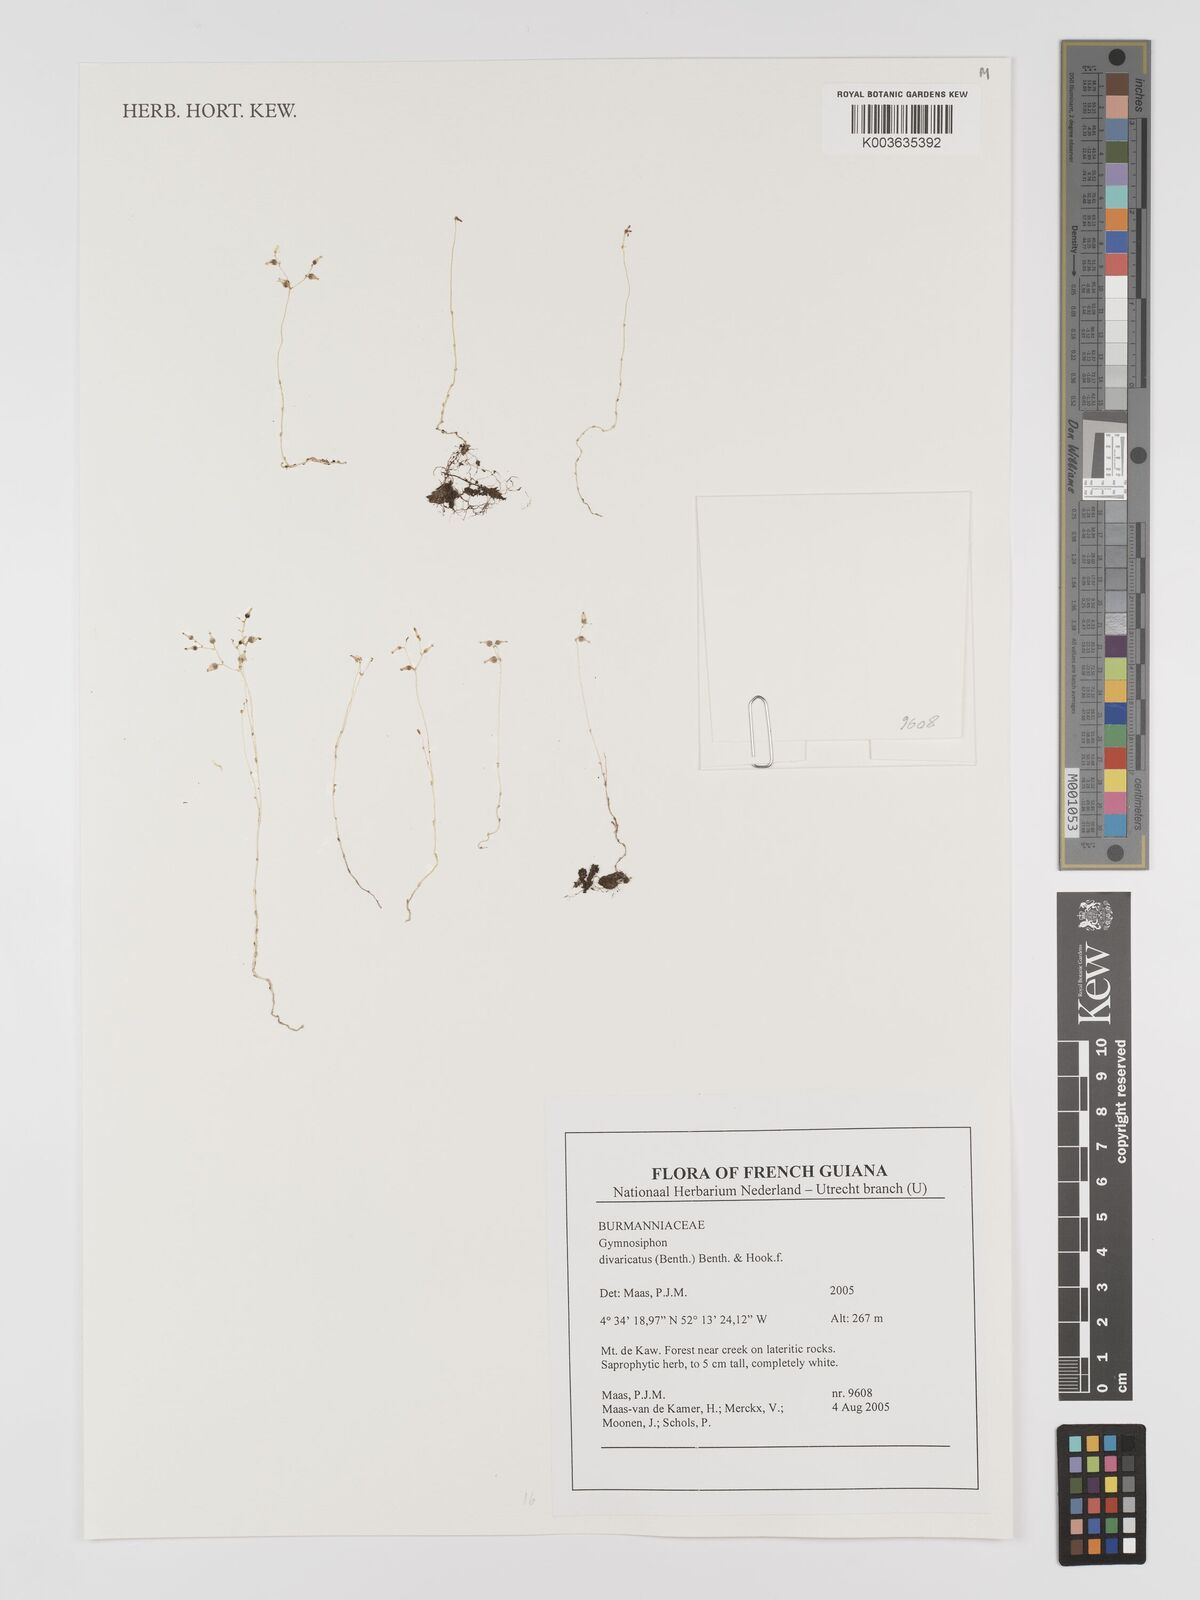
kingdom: Plantae
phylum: Tracheophyta
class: Liliopsida
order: Dioscoreales
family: Burmanniaceae
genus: Gymnosiphon
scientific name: Gymnosiphon divaricatus
